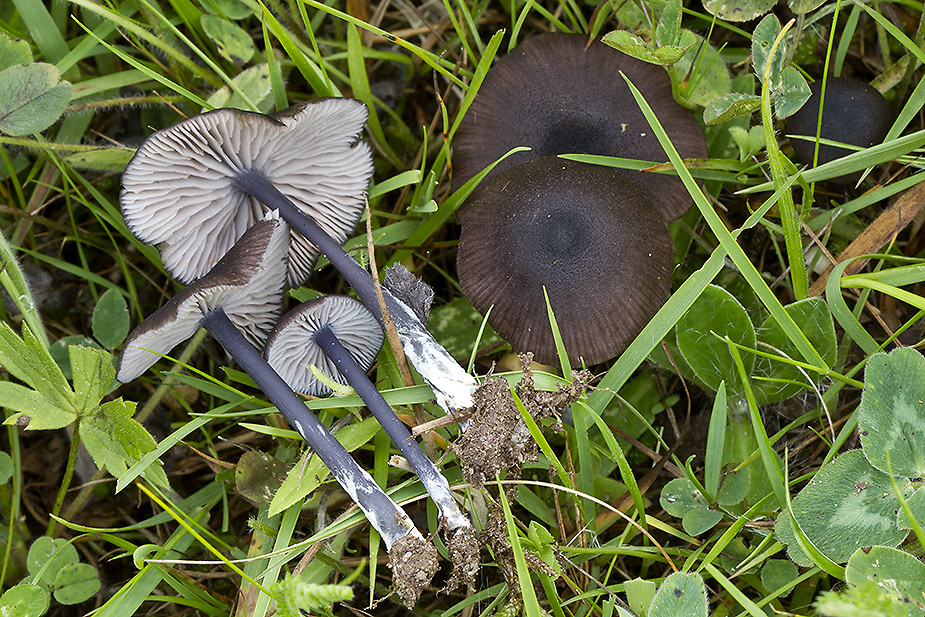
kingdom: Fungi
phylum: Basidiomycota
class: Agaricomycetes
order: Agaricales
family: Entolomataceae
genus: Entoloma
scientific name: Entoloma chalybeum
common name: blåbladet rødblad
